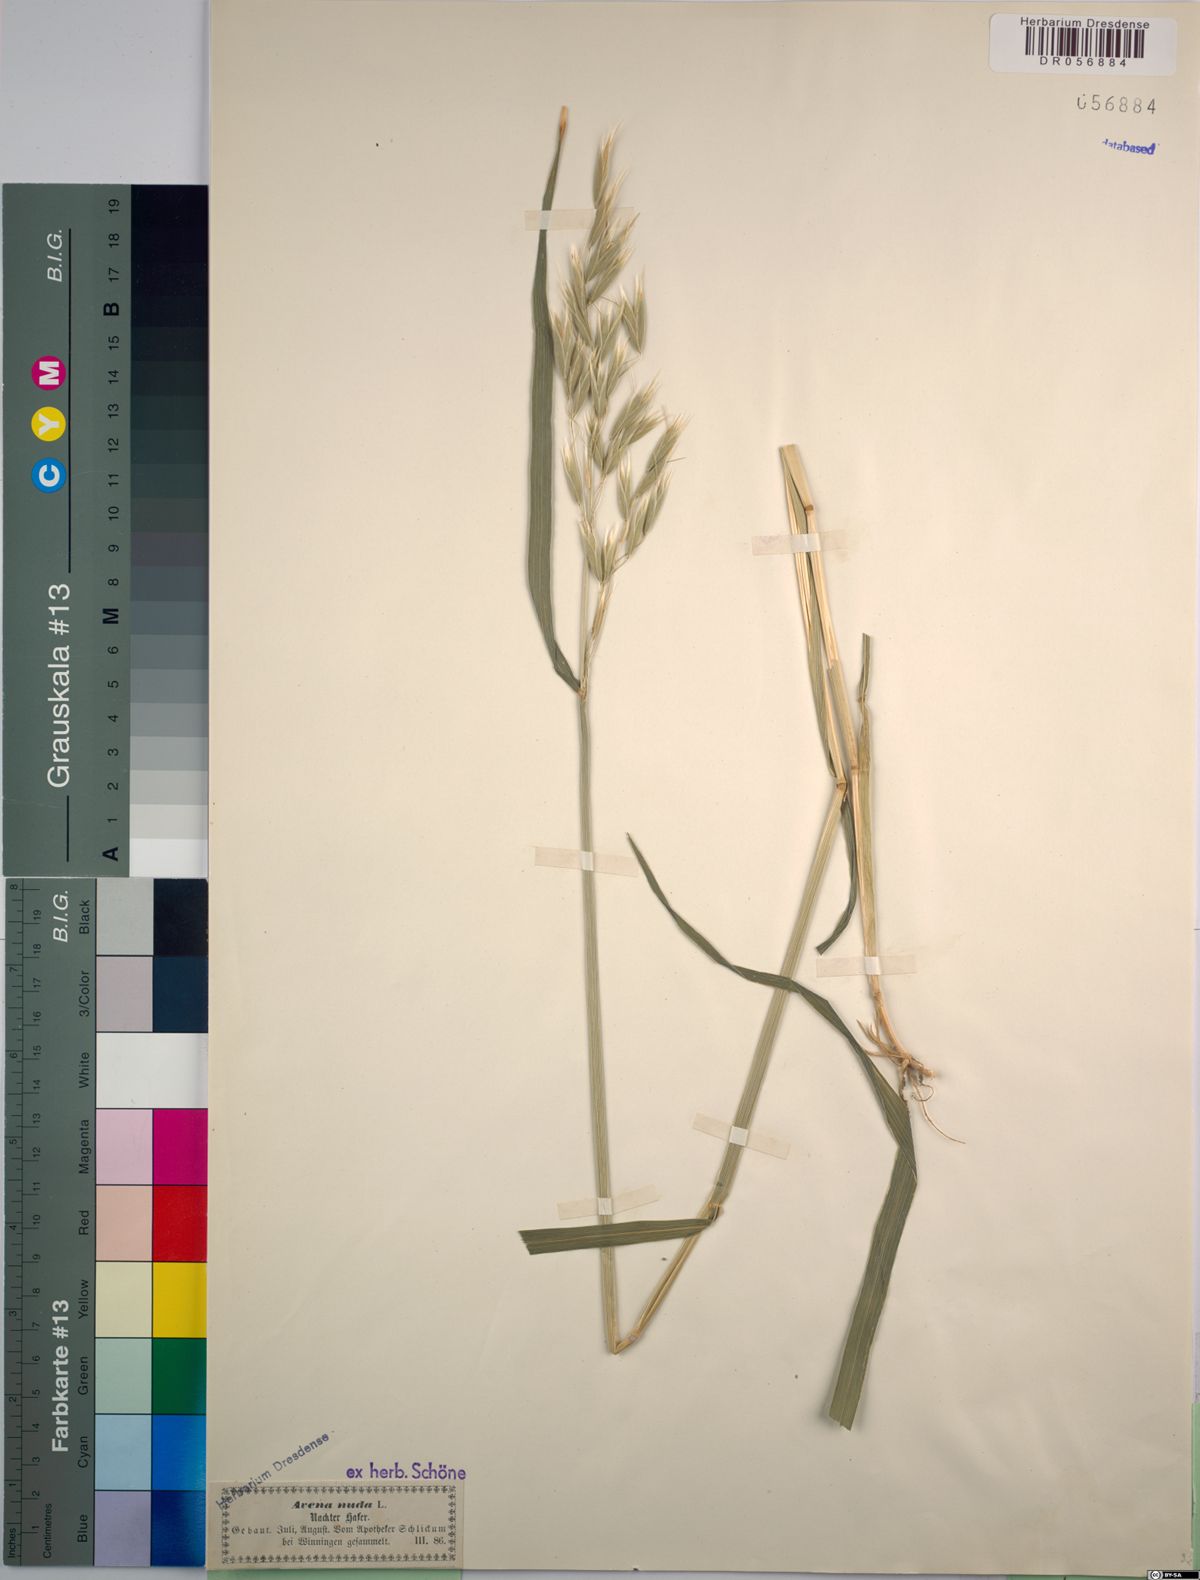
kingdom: Plantae
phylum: Tracheophyta
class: Liliopsida
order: Poales
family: Poaceae
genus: Avena
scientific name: Avena nuda
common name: Naked oat
